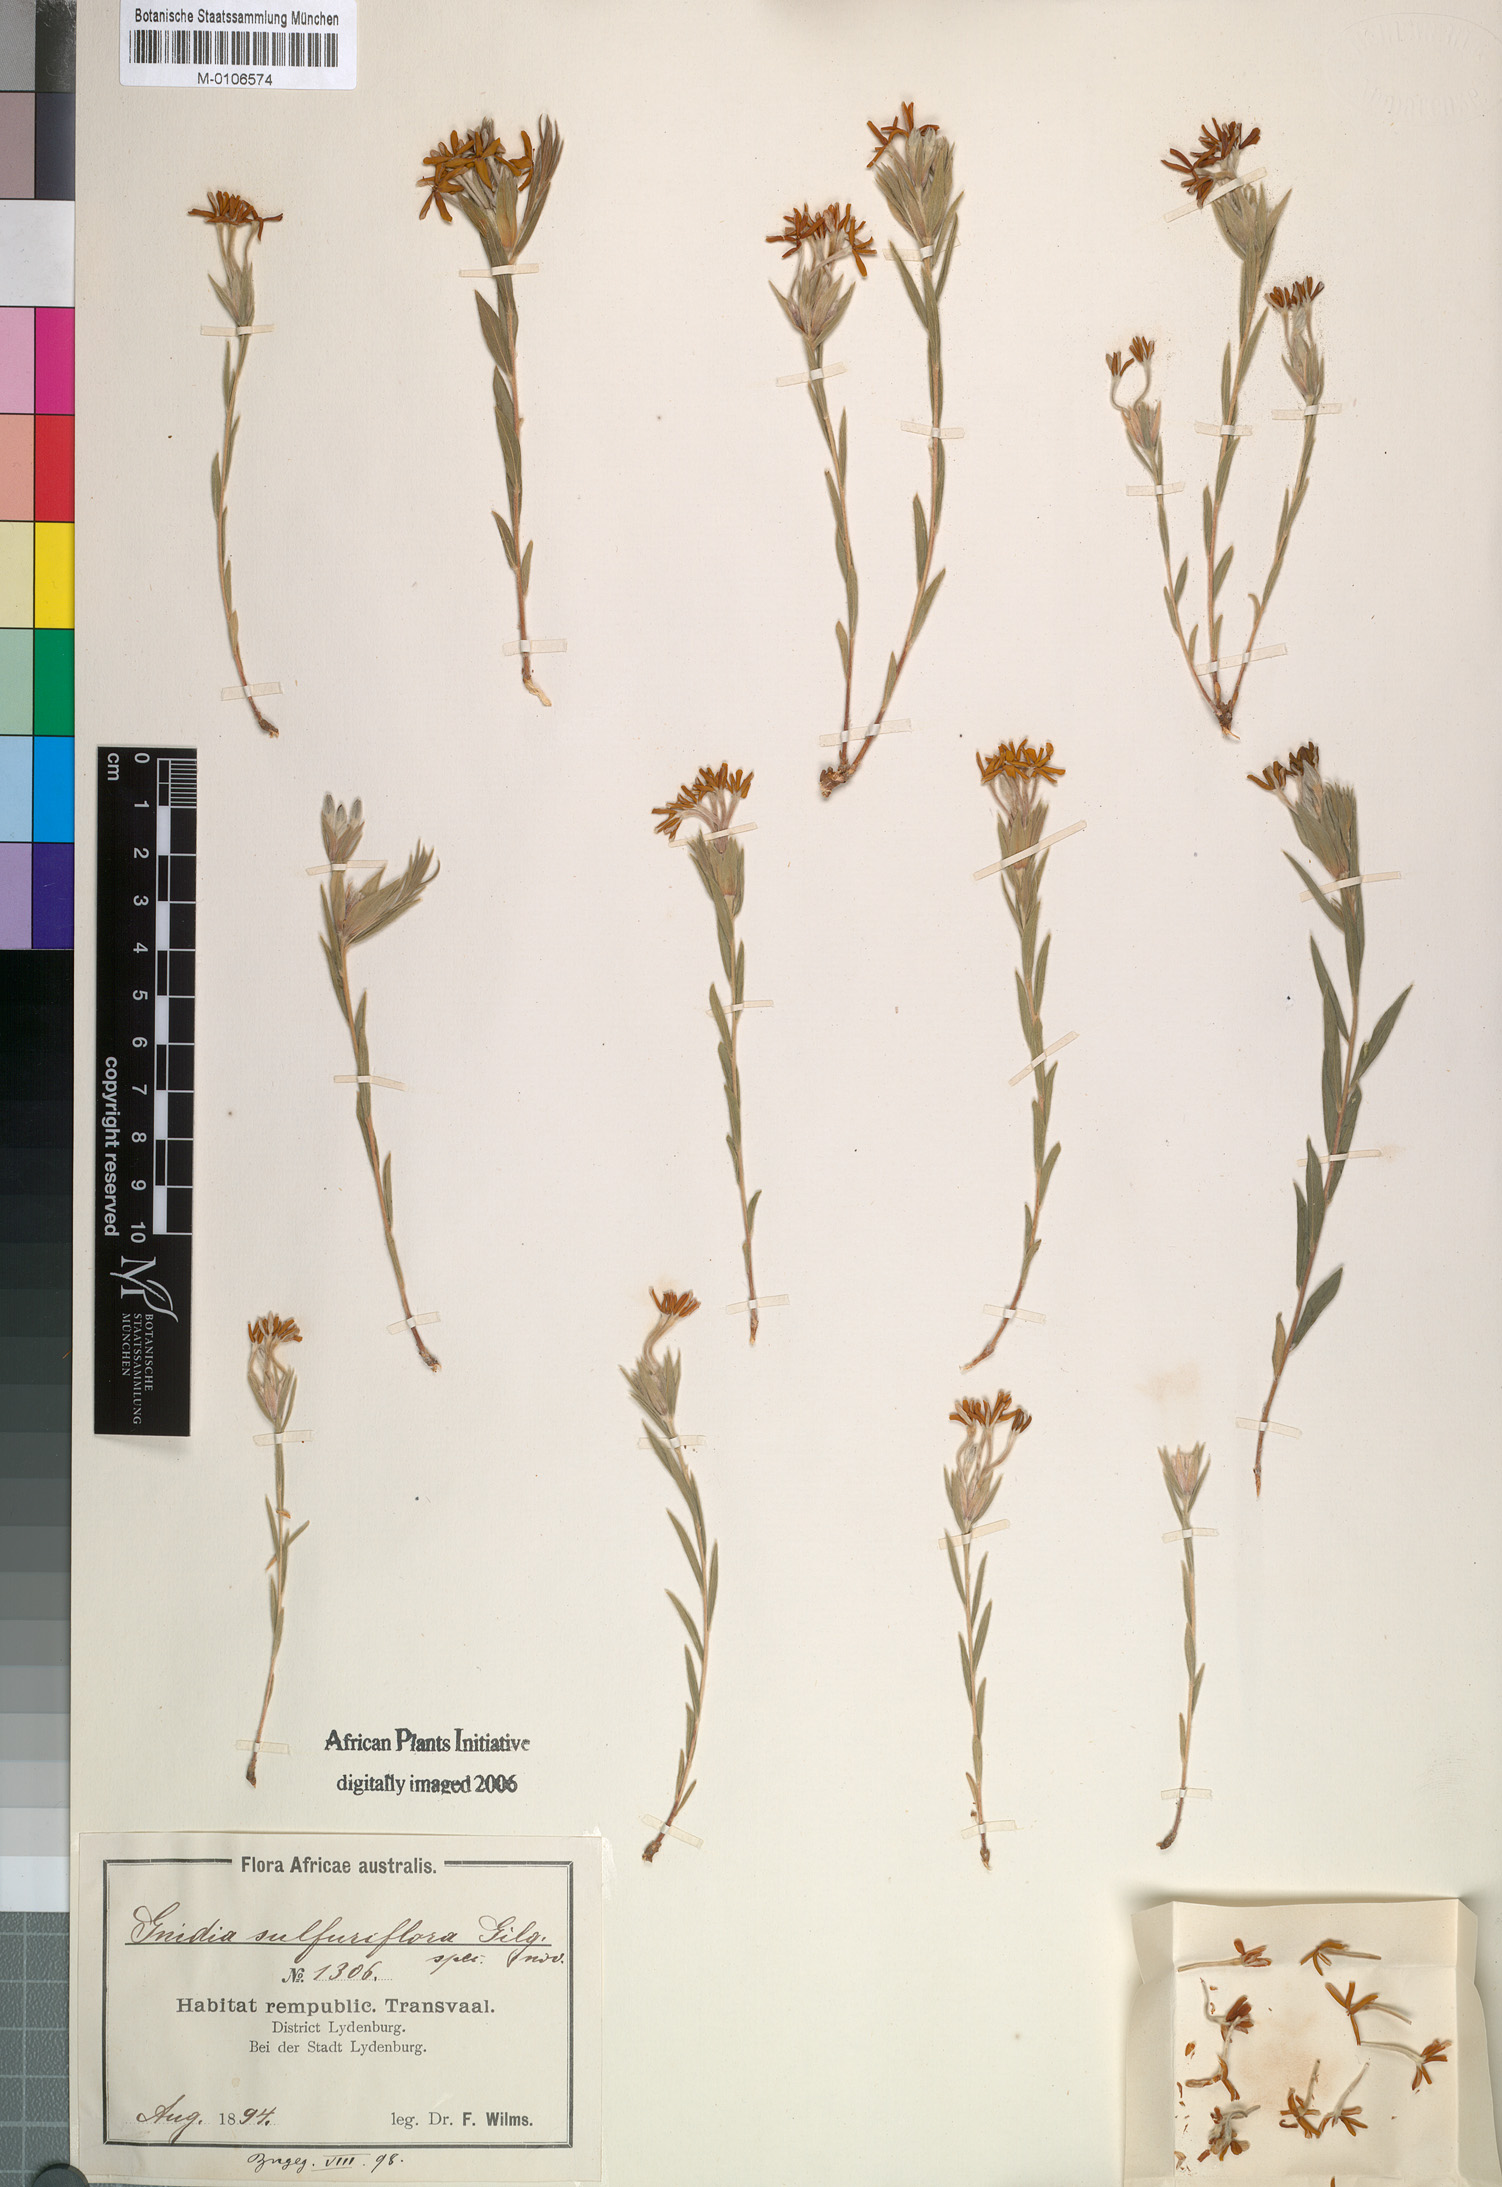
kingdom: Plantae
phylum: Tracheophyta
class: Magnoliopsida
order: Malvales
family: Thymelaeaceae
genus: Gnidia
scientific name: Gnidia
